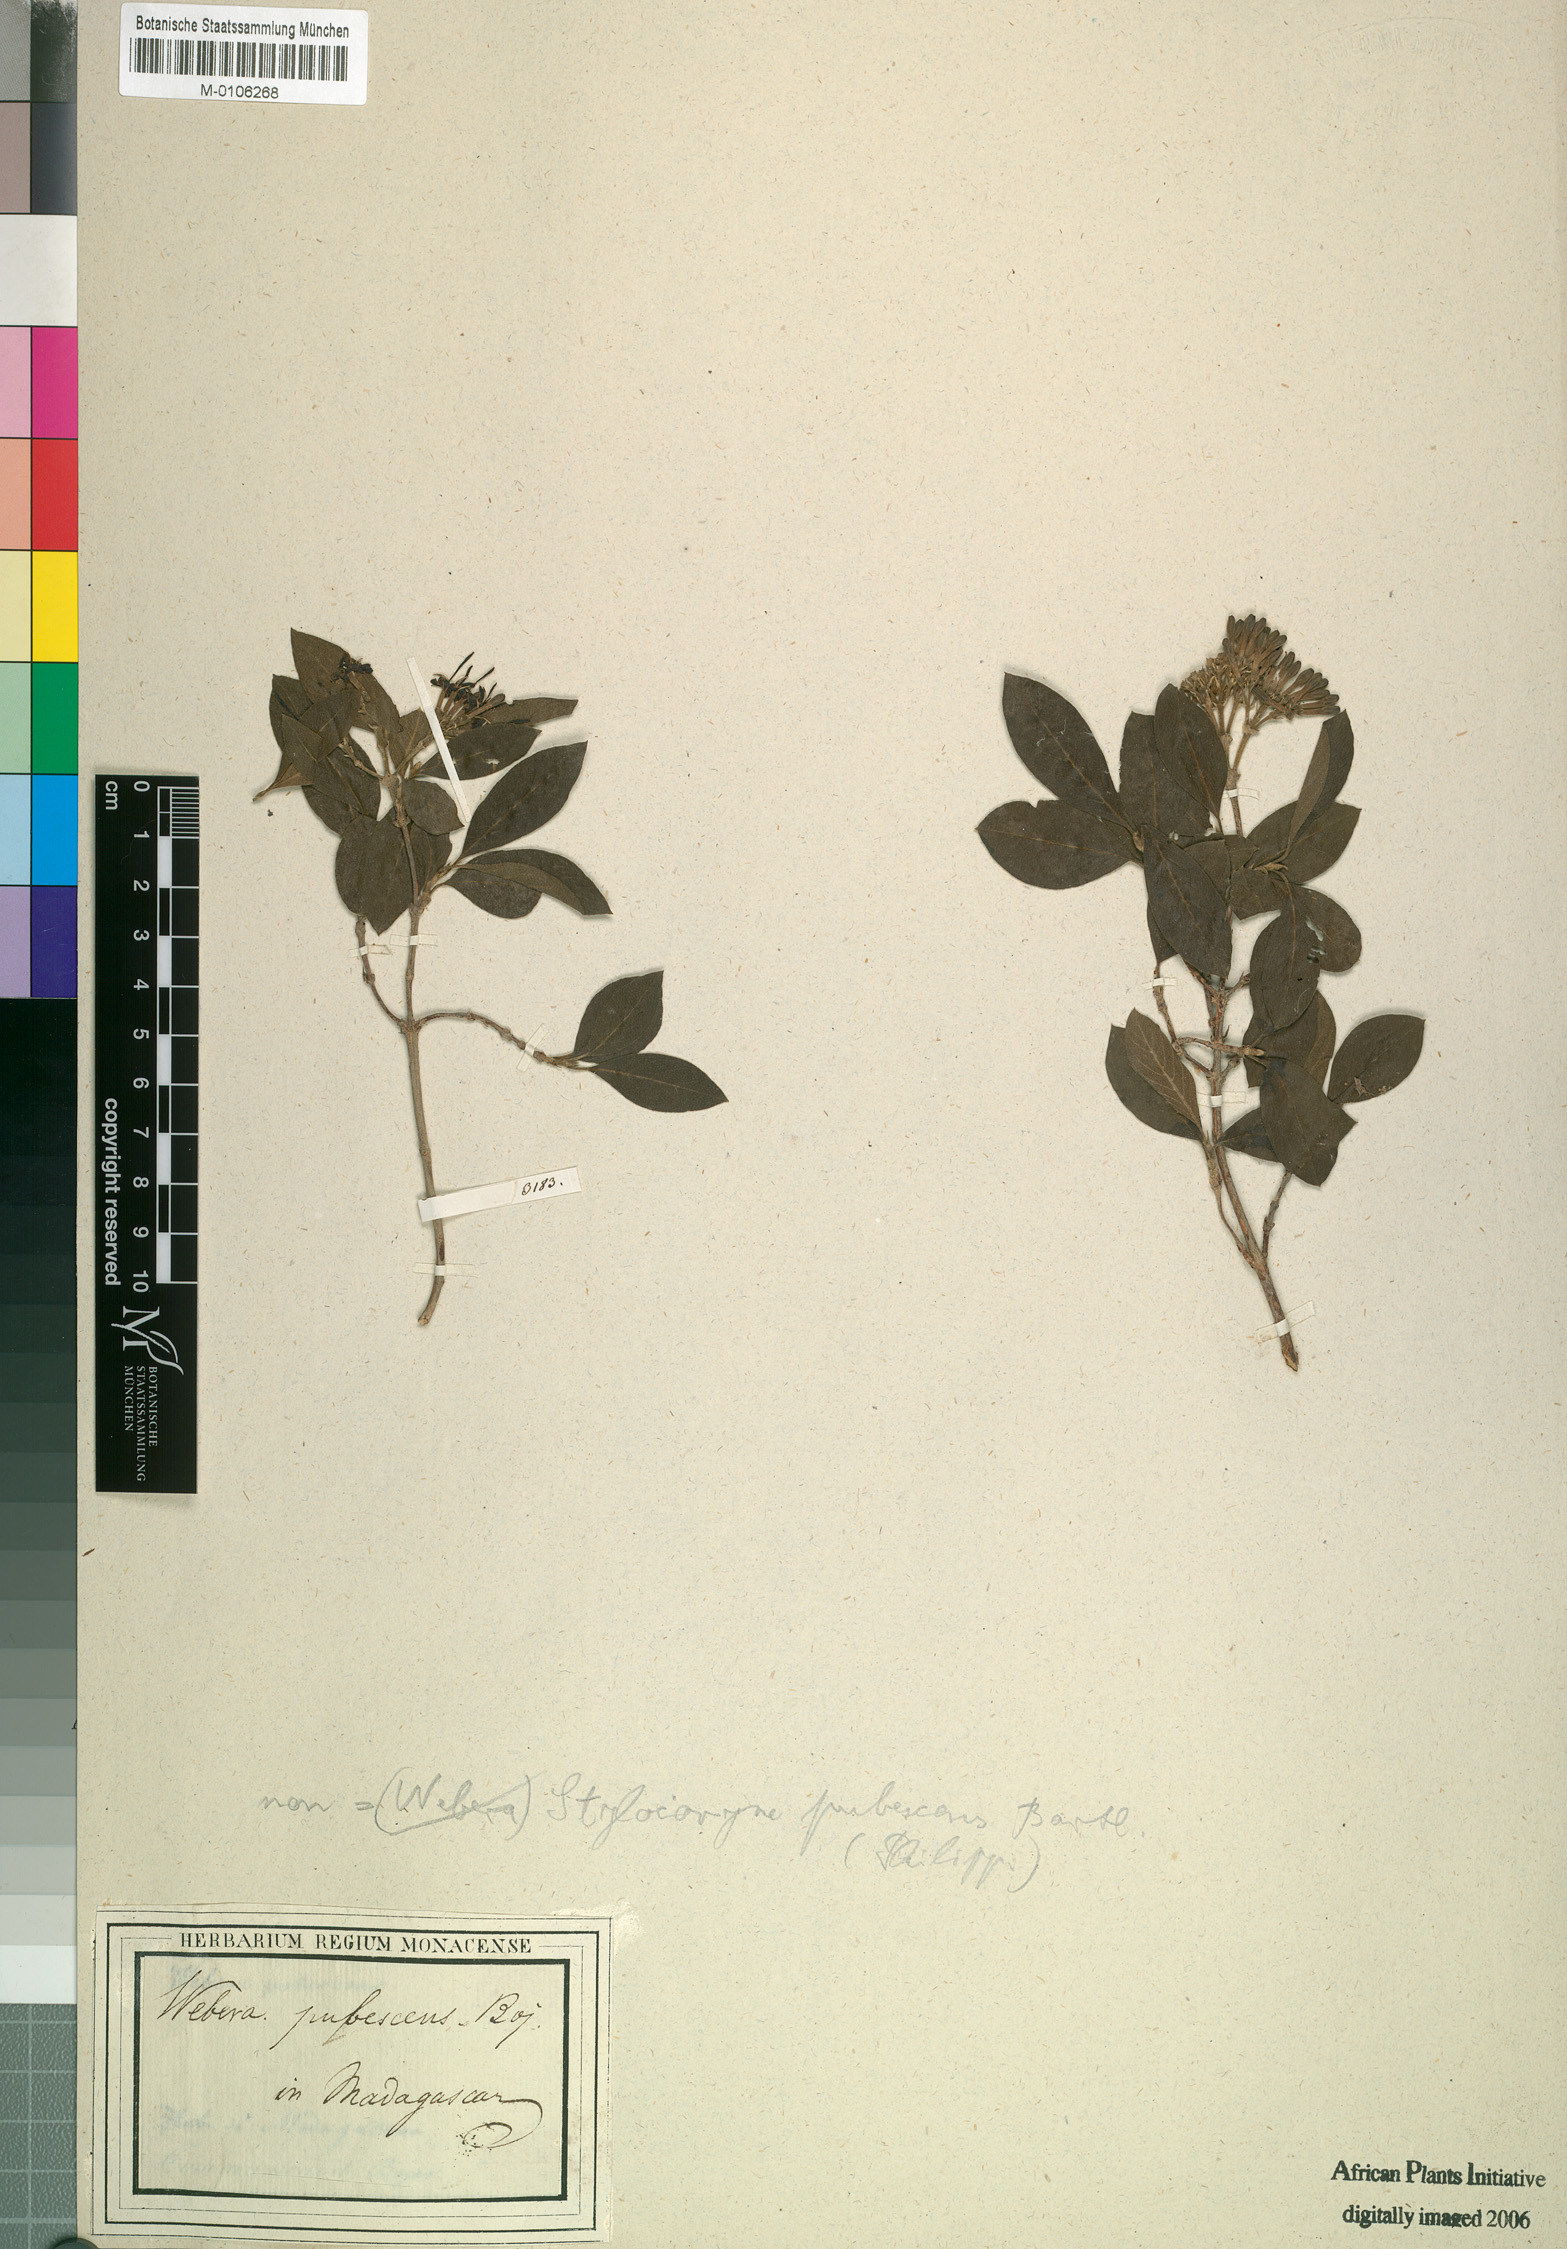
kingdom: Plantae
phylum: Tracheophyta
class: Magnoliopsida
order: Gentianales
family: Rubiaceae
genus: Tarenna
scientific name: Tarenna bartlingii
